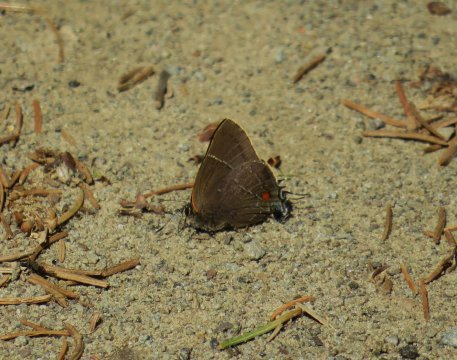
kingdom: Animalia
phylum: Arthropoda
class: Insecta
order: Lepidoptera
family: Lycaenidae
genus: Parrhasius
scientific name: Parrhasius m-album
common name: White-m Hairstreak
